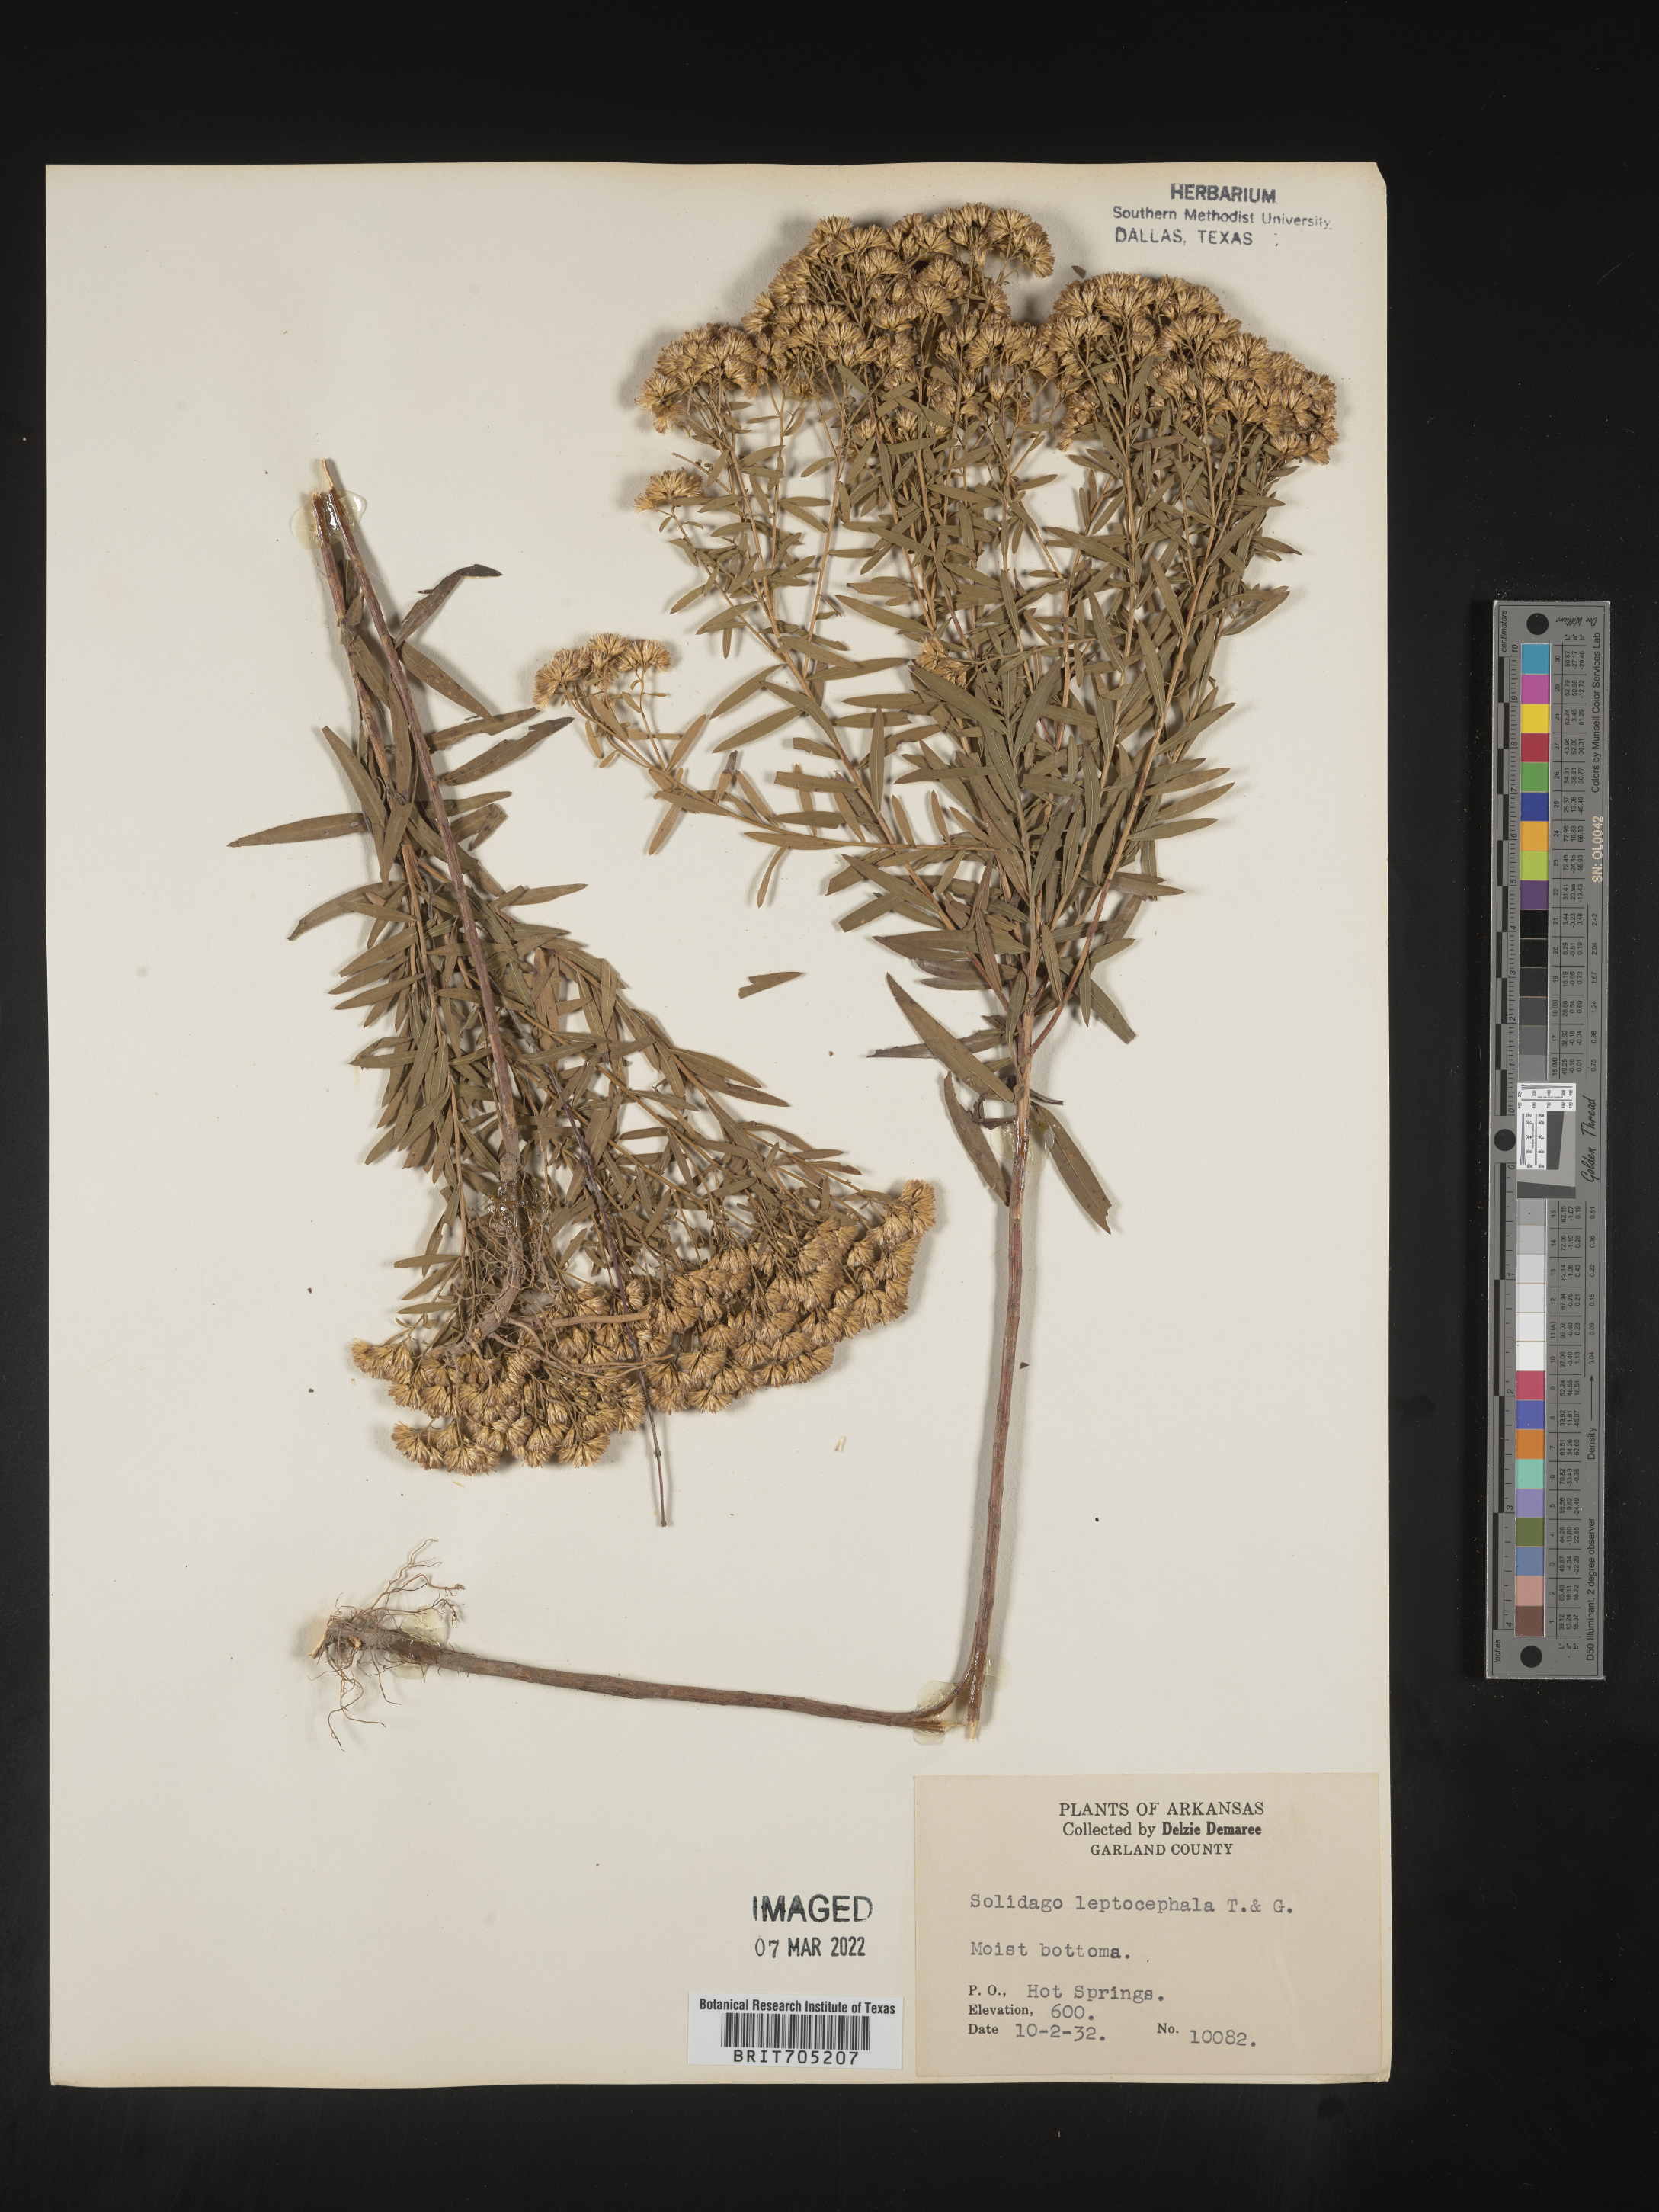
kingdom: Plantae
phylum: Tracheophyta
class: Magnoliopsida
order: Asterales
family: Asteraceae
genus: Euthamia
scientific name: Euthamia leptocephala
